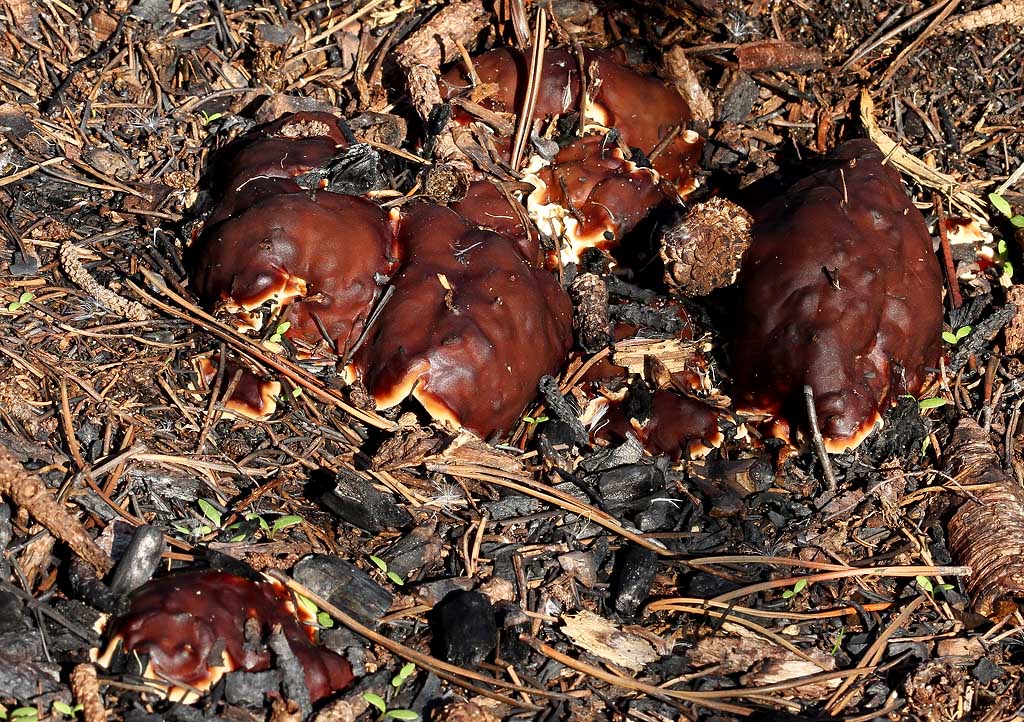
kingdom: Fungi
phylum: Ascomycota
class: Pezizomycetes
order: Pezizales
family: Rhizinaceae
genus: Rhizina
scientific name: Rhizina undulata
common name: rodmorkel
